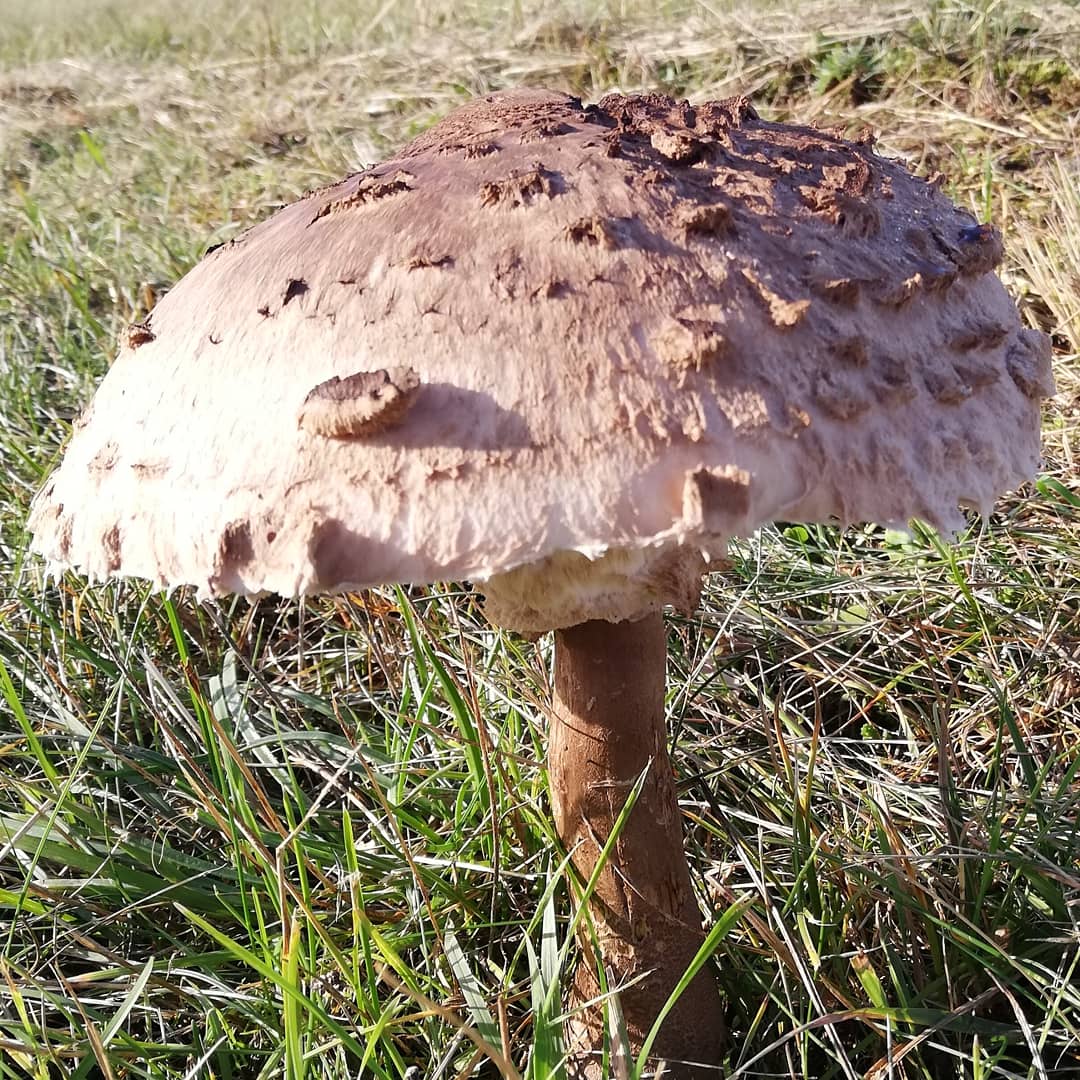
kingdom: Fungi
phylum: Basidiomycota
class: Agaricomycetes
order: Agaricales
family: Agaricaceae
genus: Macrolepiota
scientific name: Macrolepiota procera
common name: stor kæmpeparasolhat
